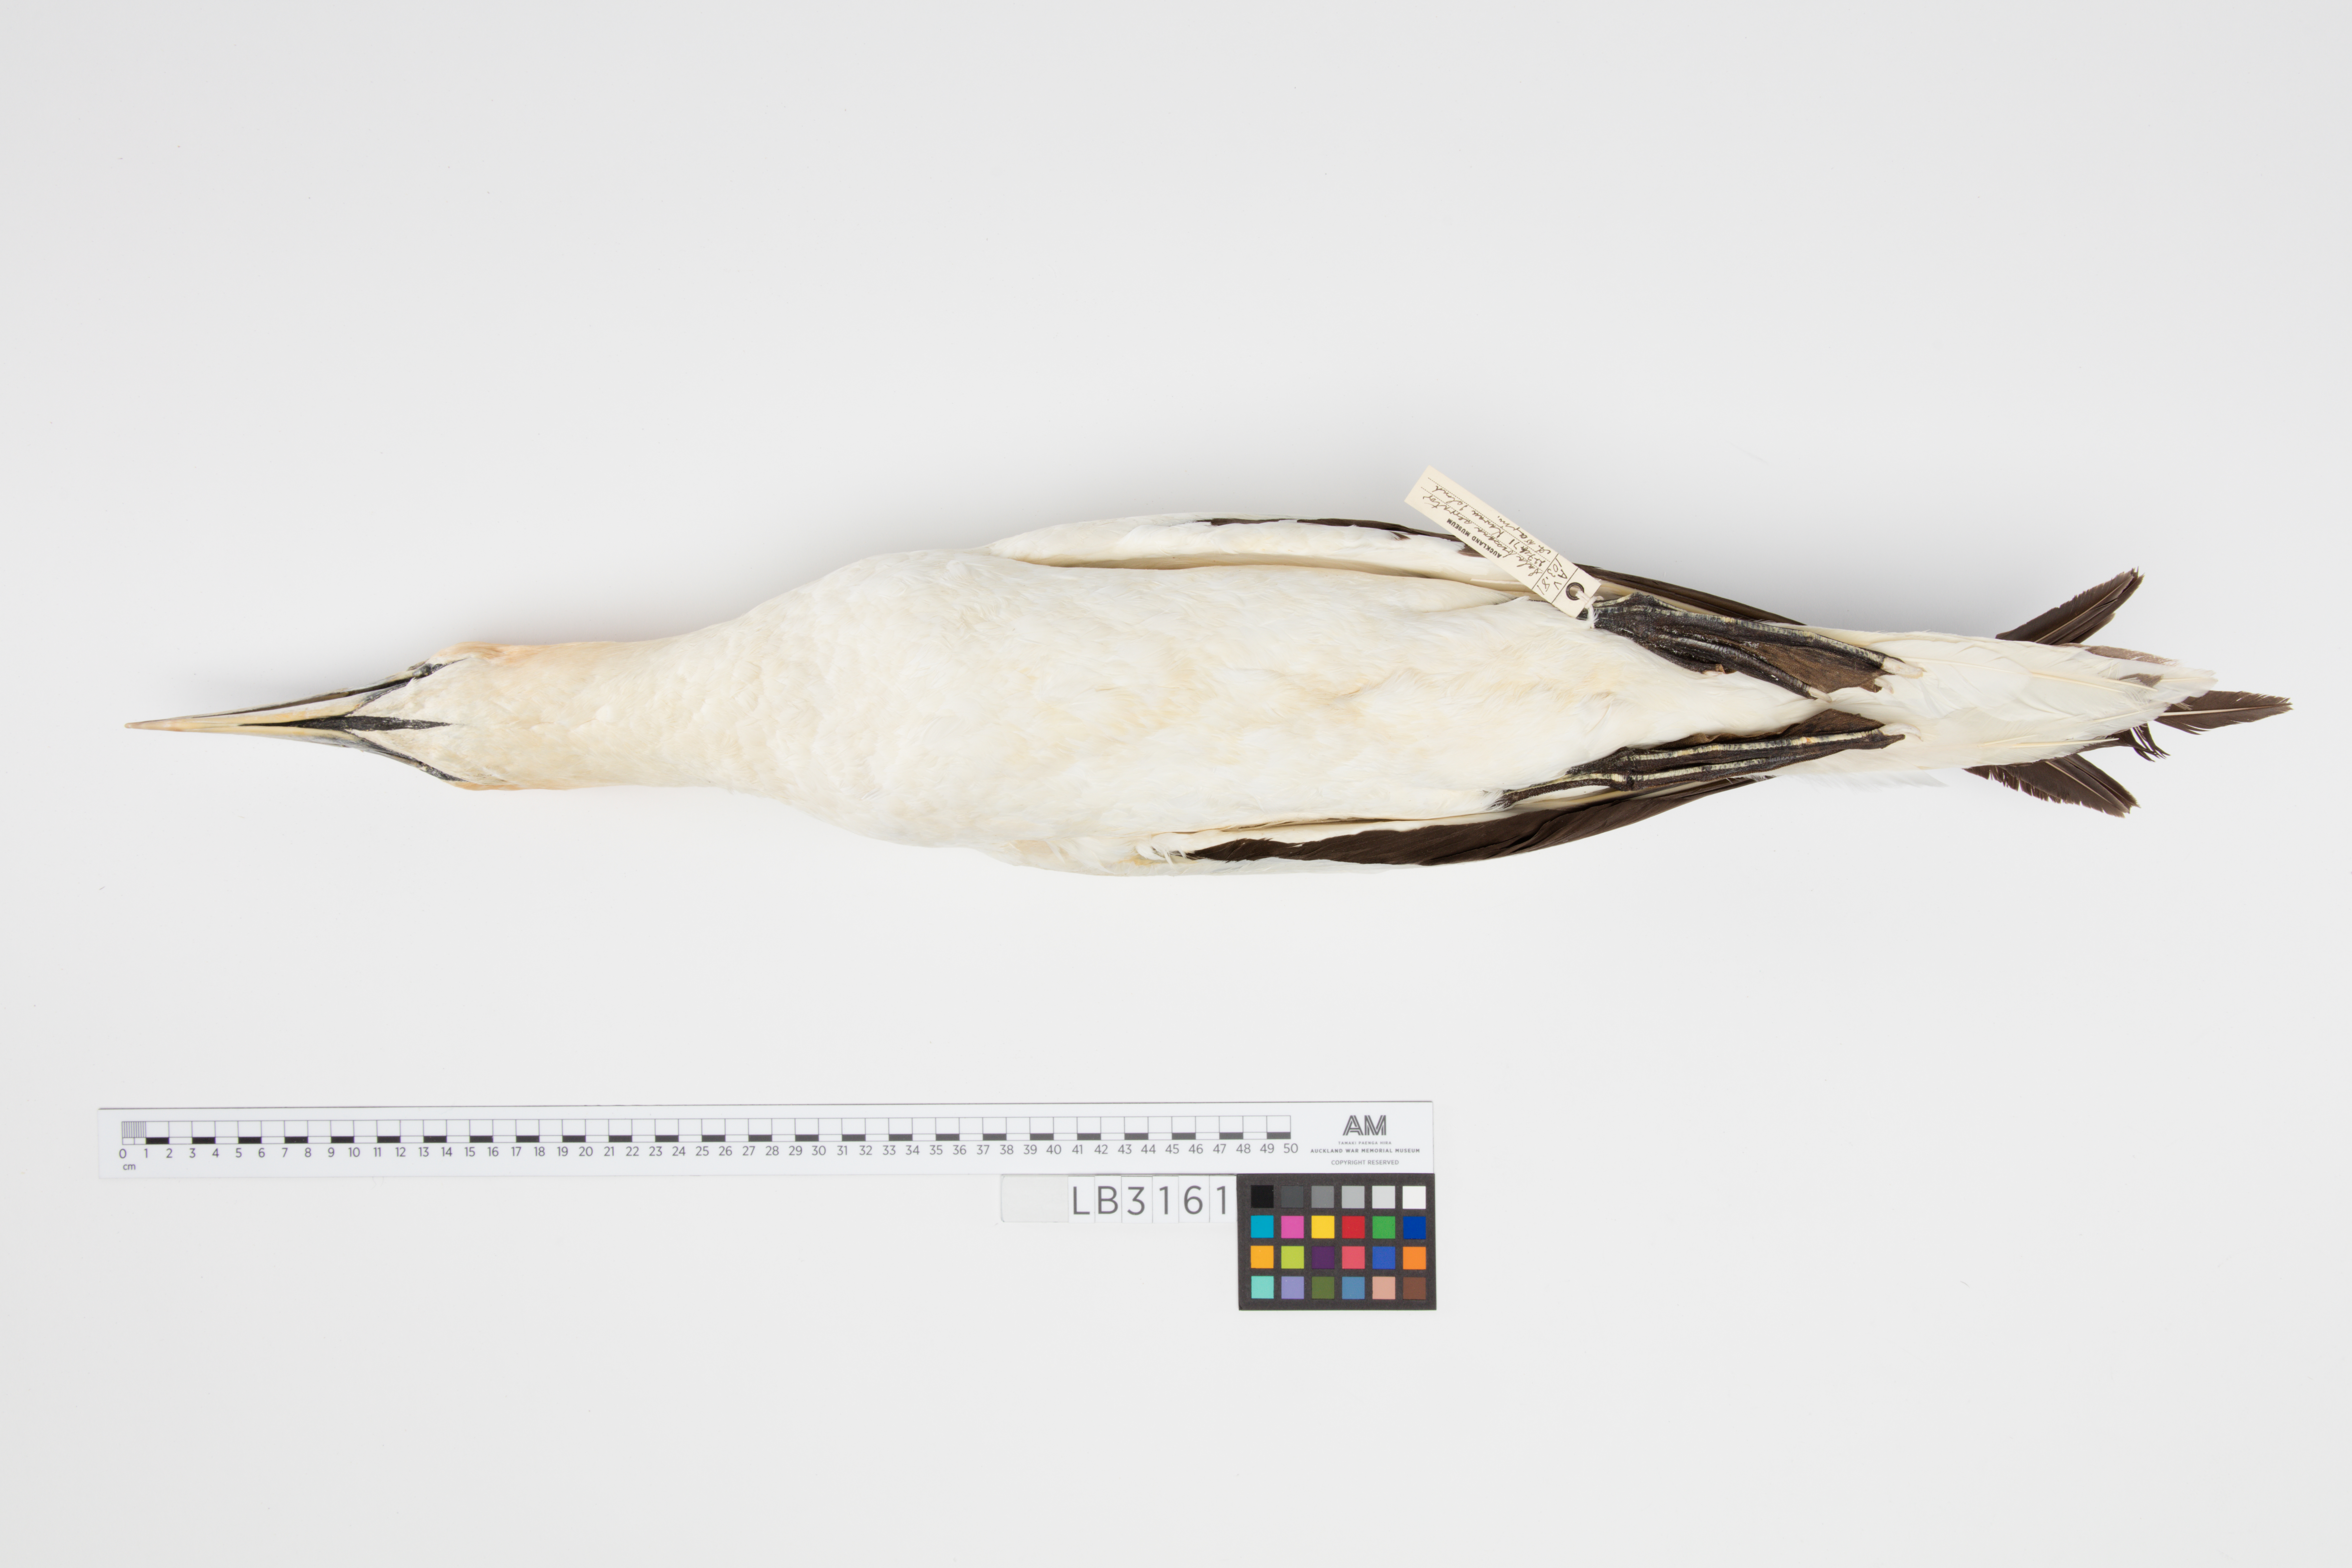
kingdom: Animalia
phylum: Chordata
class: Aves
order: Suliformes
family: Sulidae
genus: Morus
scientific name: Morus serrator
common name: Australasian gannet
